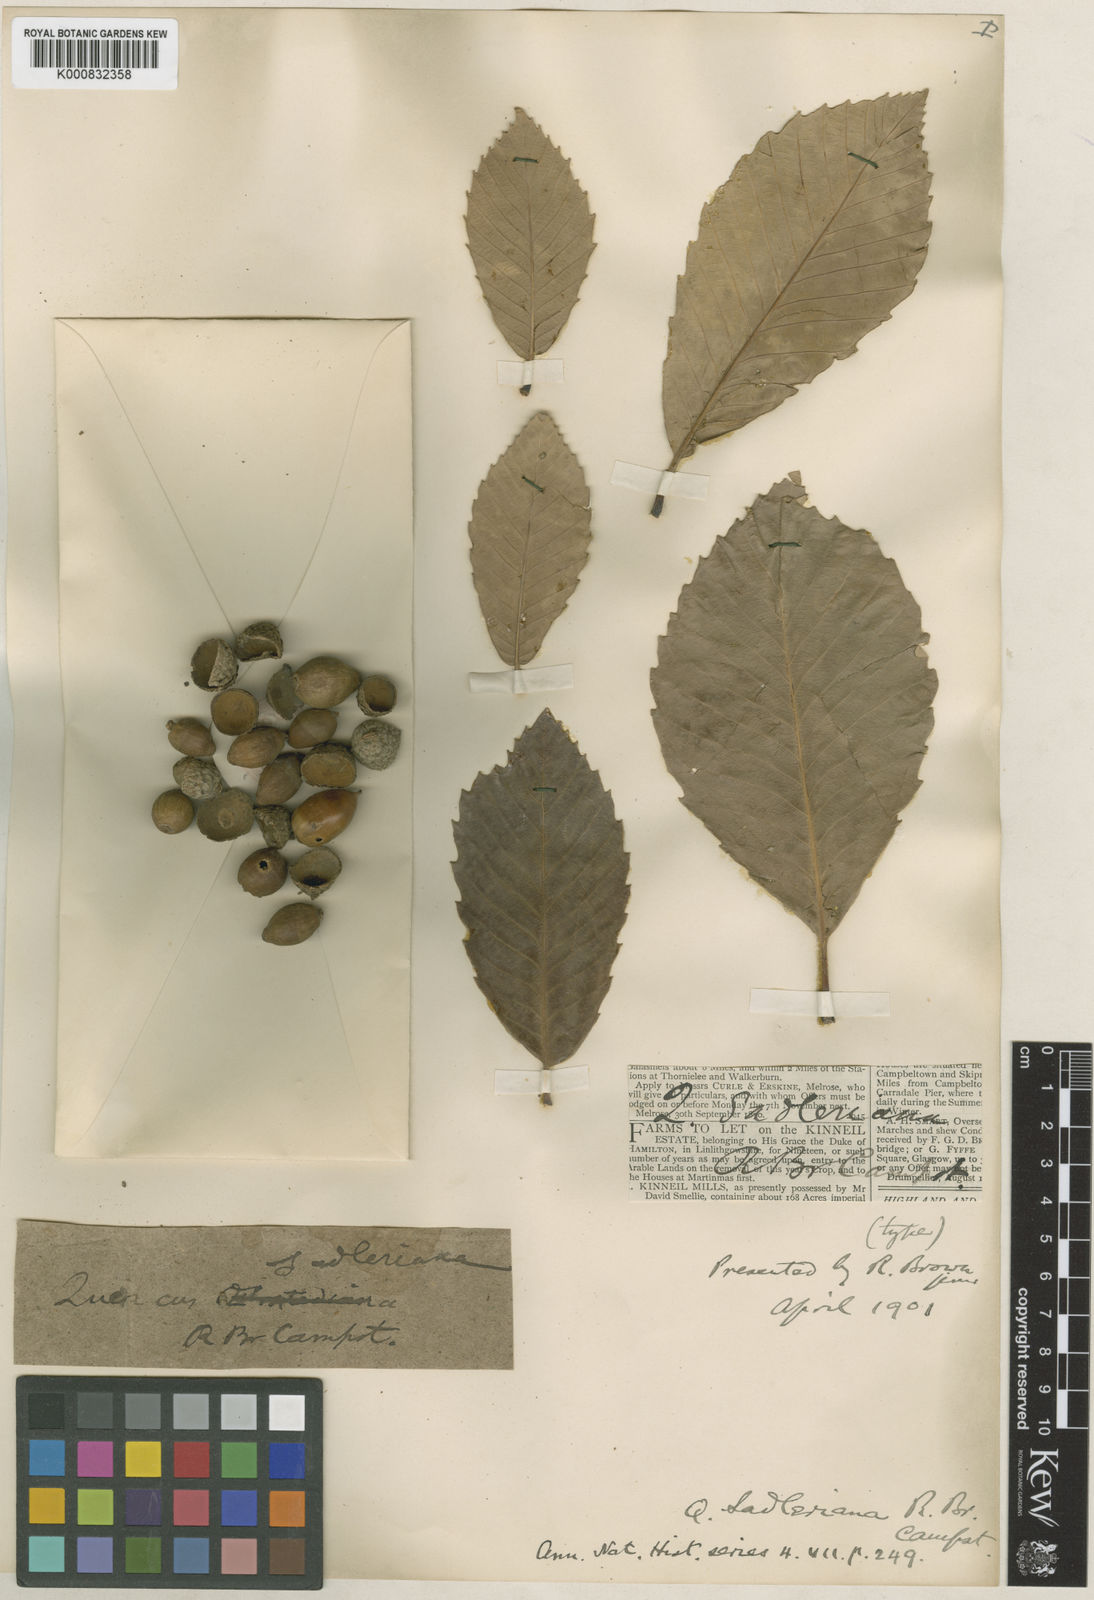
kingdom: Plantae
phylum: Tracheophyta
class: Magnoliopsida
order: Fagales
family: Fagaceae
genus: Quercus
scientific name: Quercus sadleriana
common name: Deer oak
